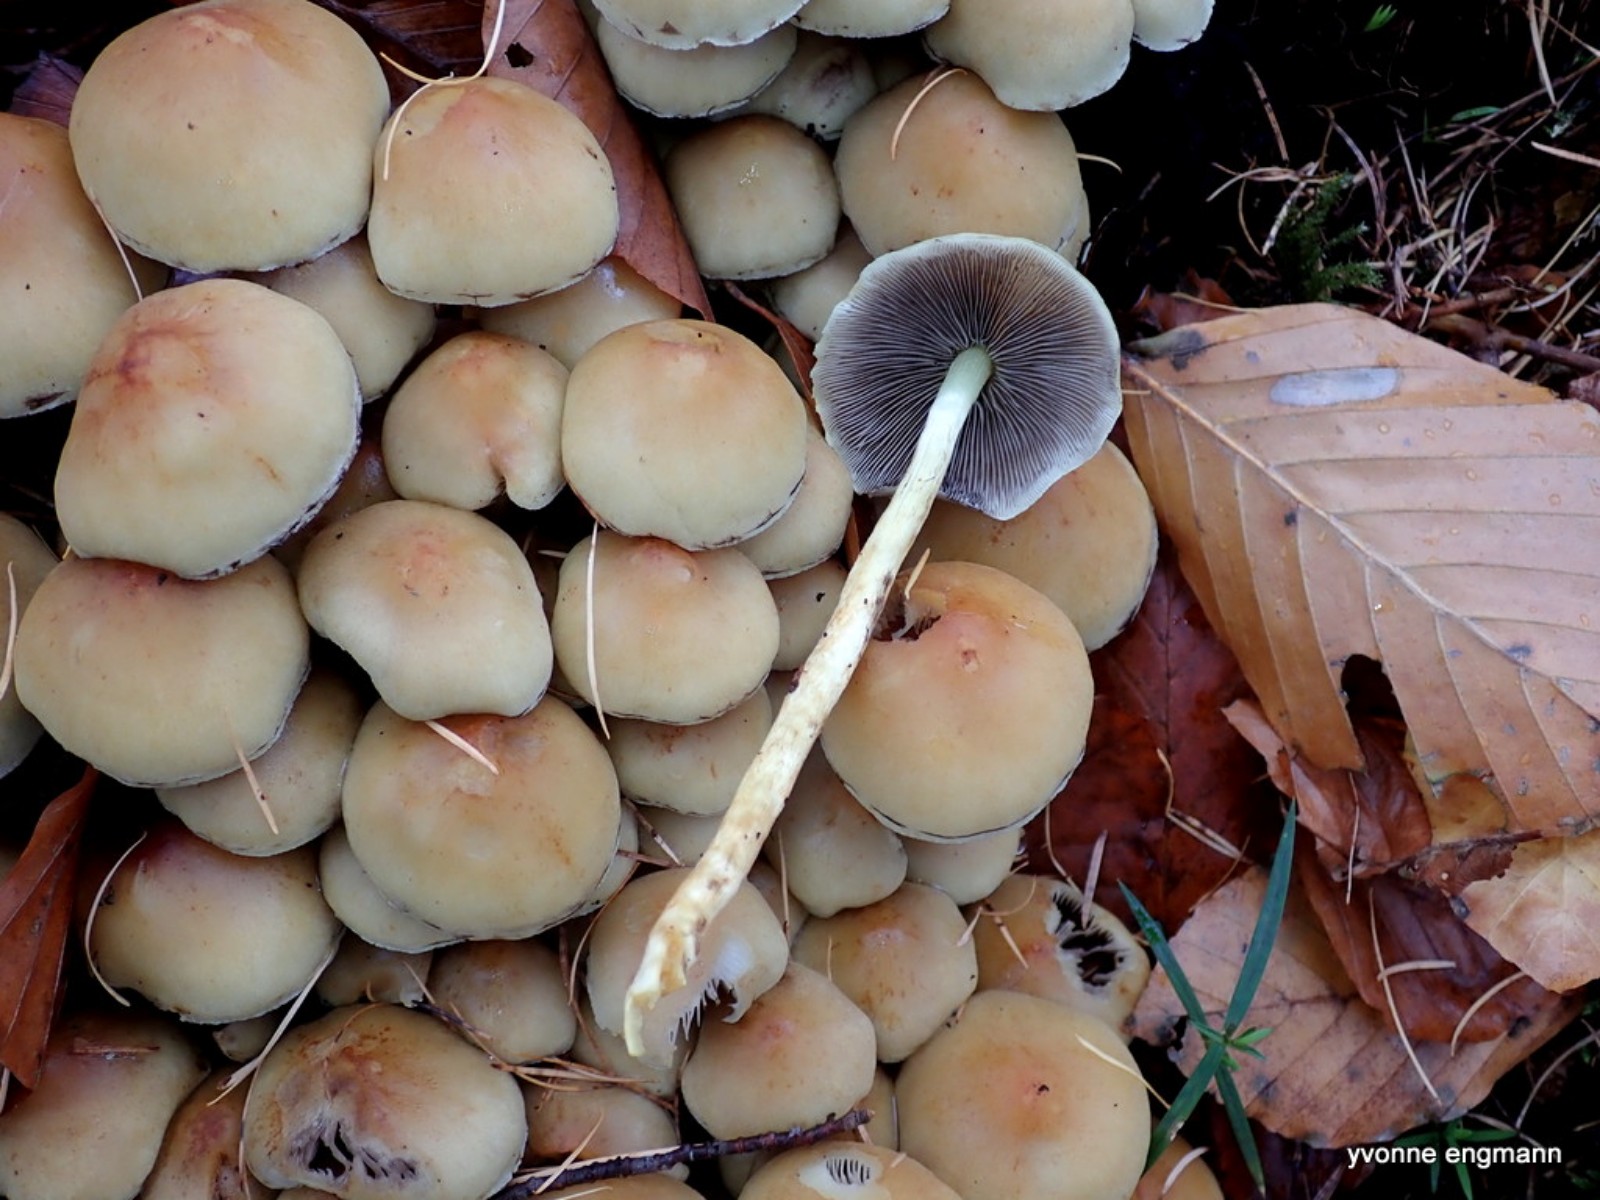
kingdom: Fungi
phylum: Basidiomycota
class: Agaricomycetes
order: Agaricales
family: Strophariaceae
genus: Hypholoma
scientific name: Hypholoma fasciculare
